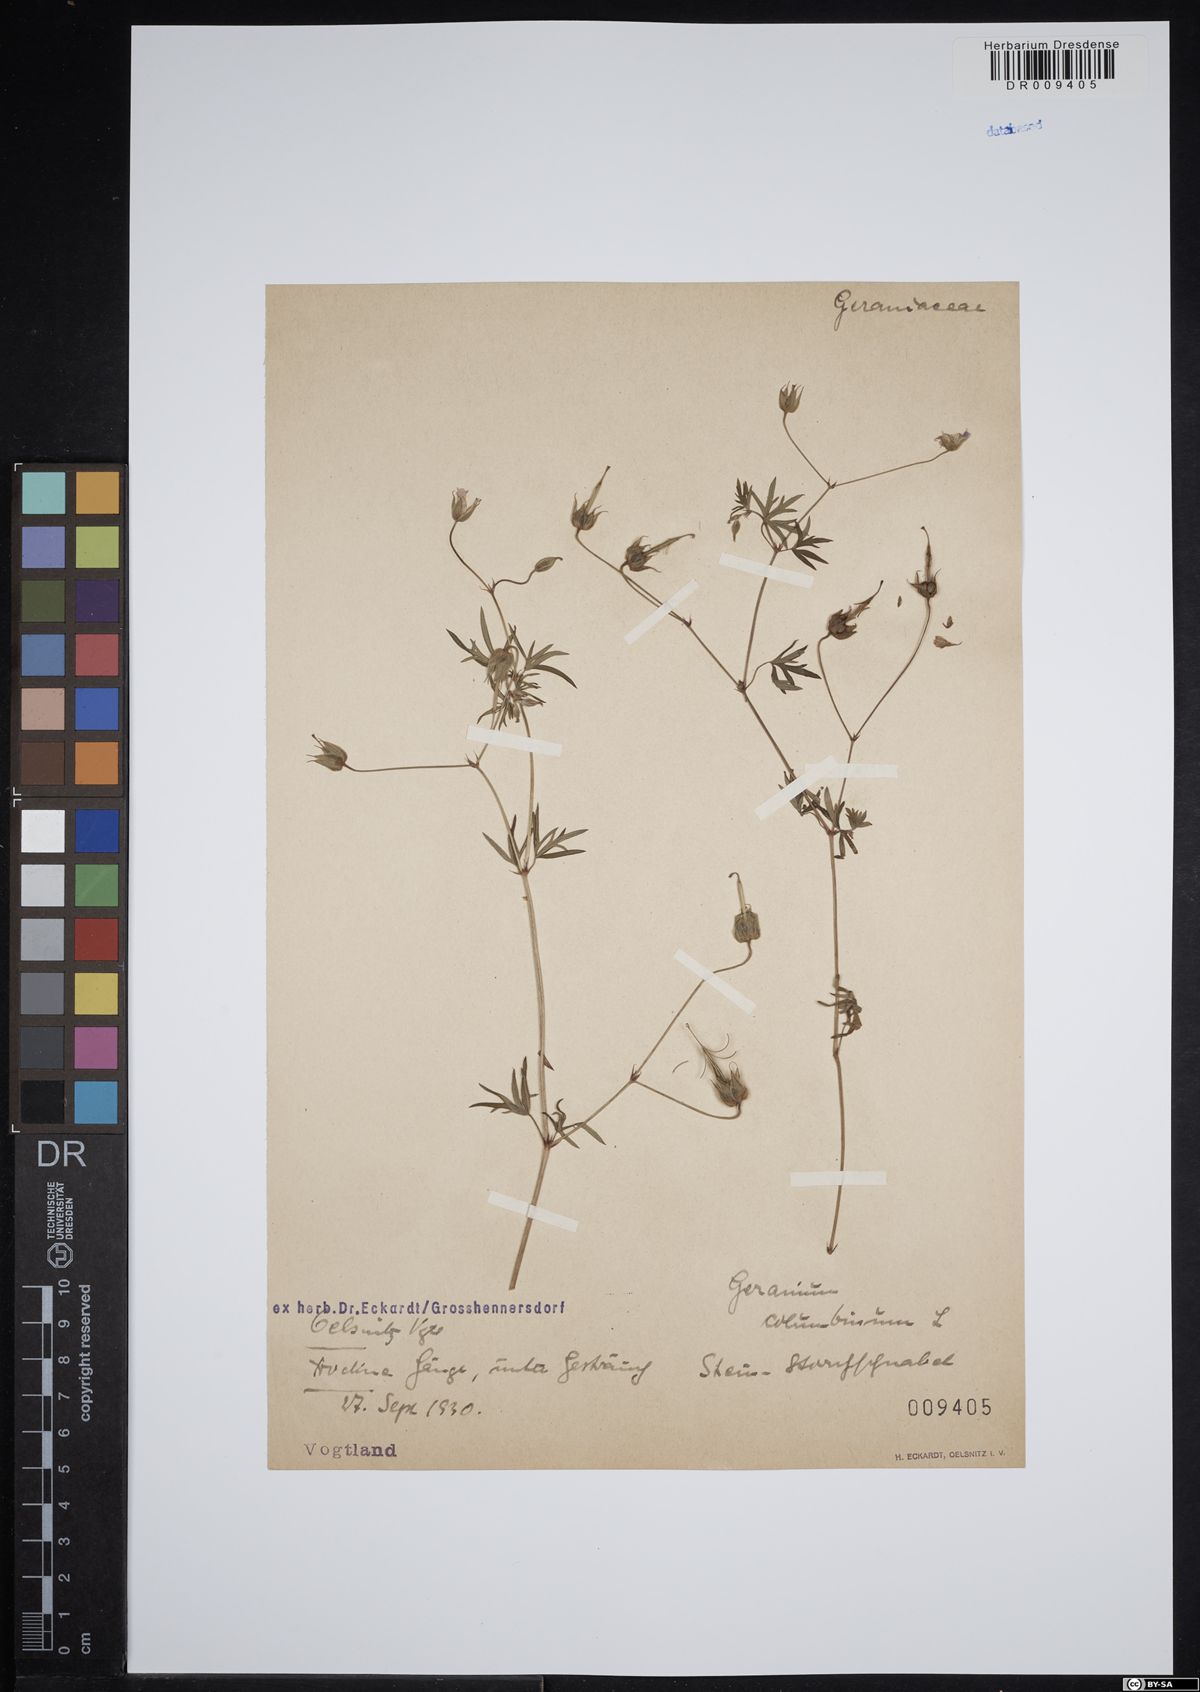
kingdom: Plantae
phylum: Tracheophyta
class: Magnoliopsida
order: Geraniales
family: Geraniaceae
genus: Geranium
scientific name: Geranium columbinum
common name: Long-stalked crane's-bill
